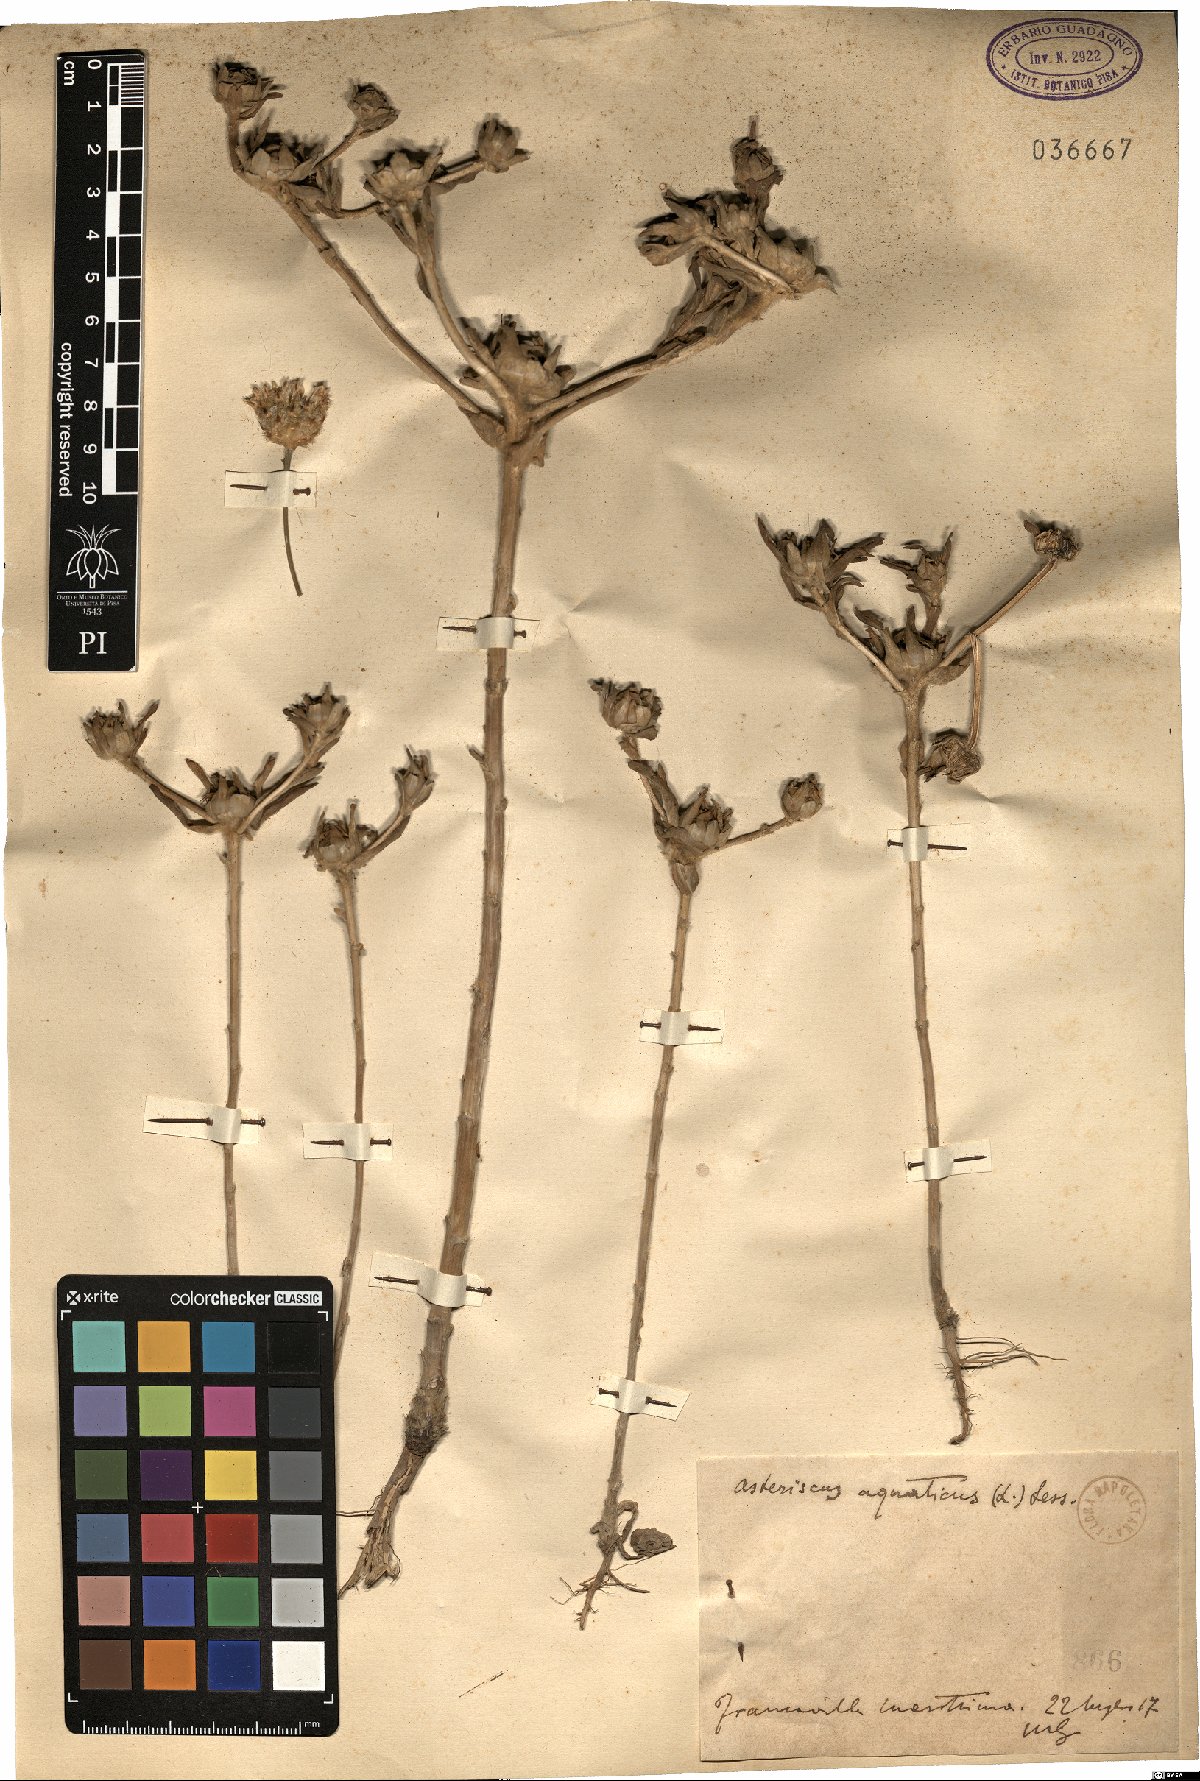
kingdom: Plantae
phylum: Tracheophyta
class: Magnoliopsida
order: Asterales
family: Asteraceae
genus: Asteriscus
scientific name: Asteriscus aquaticus
